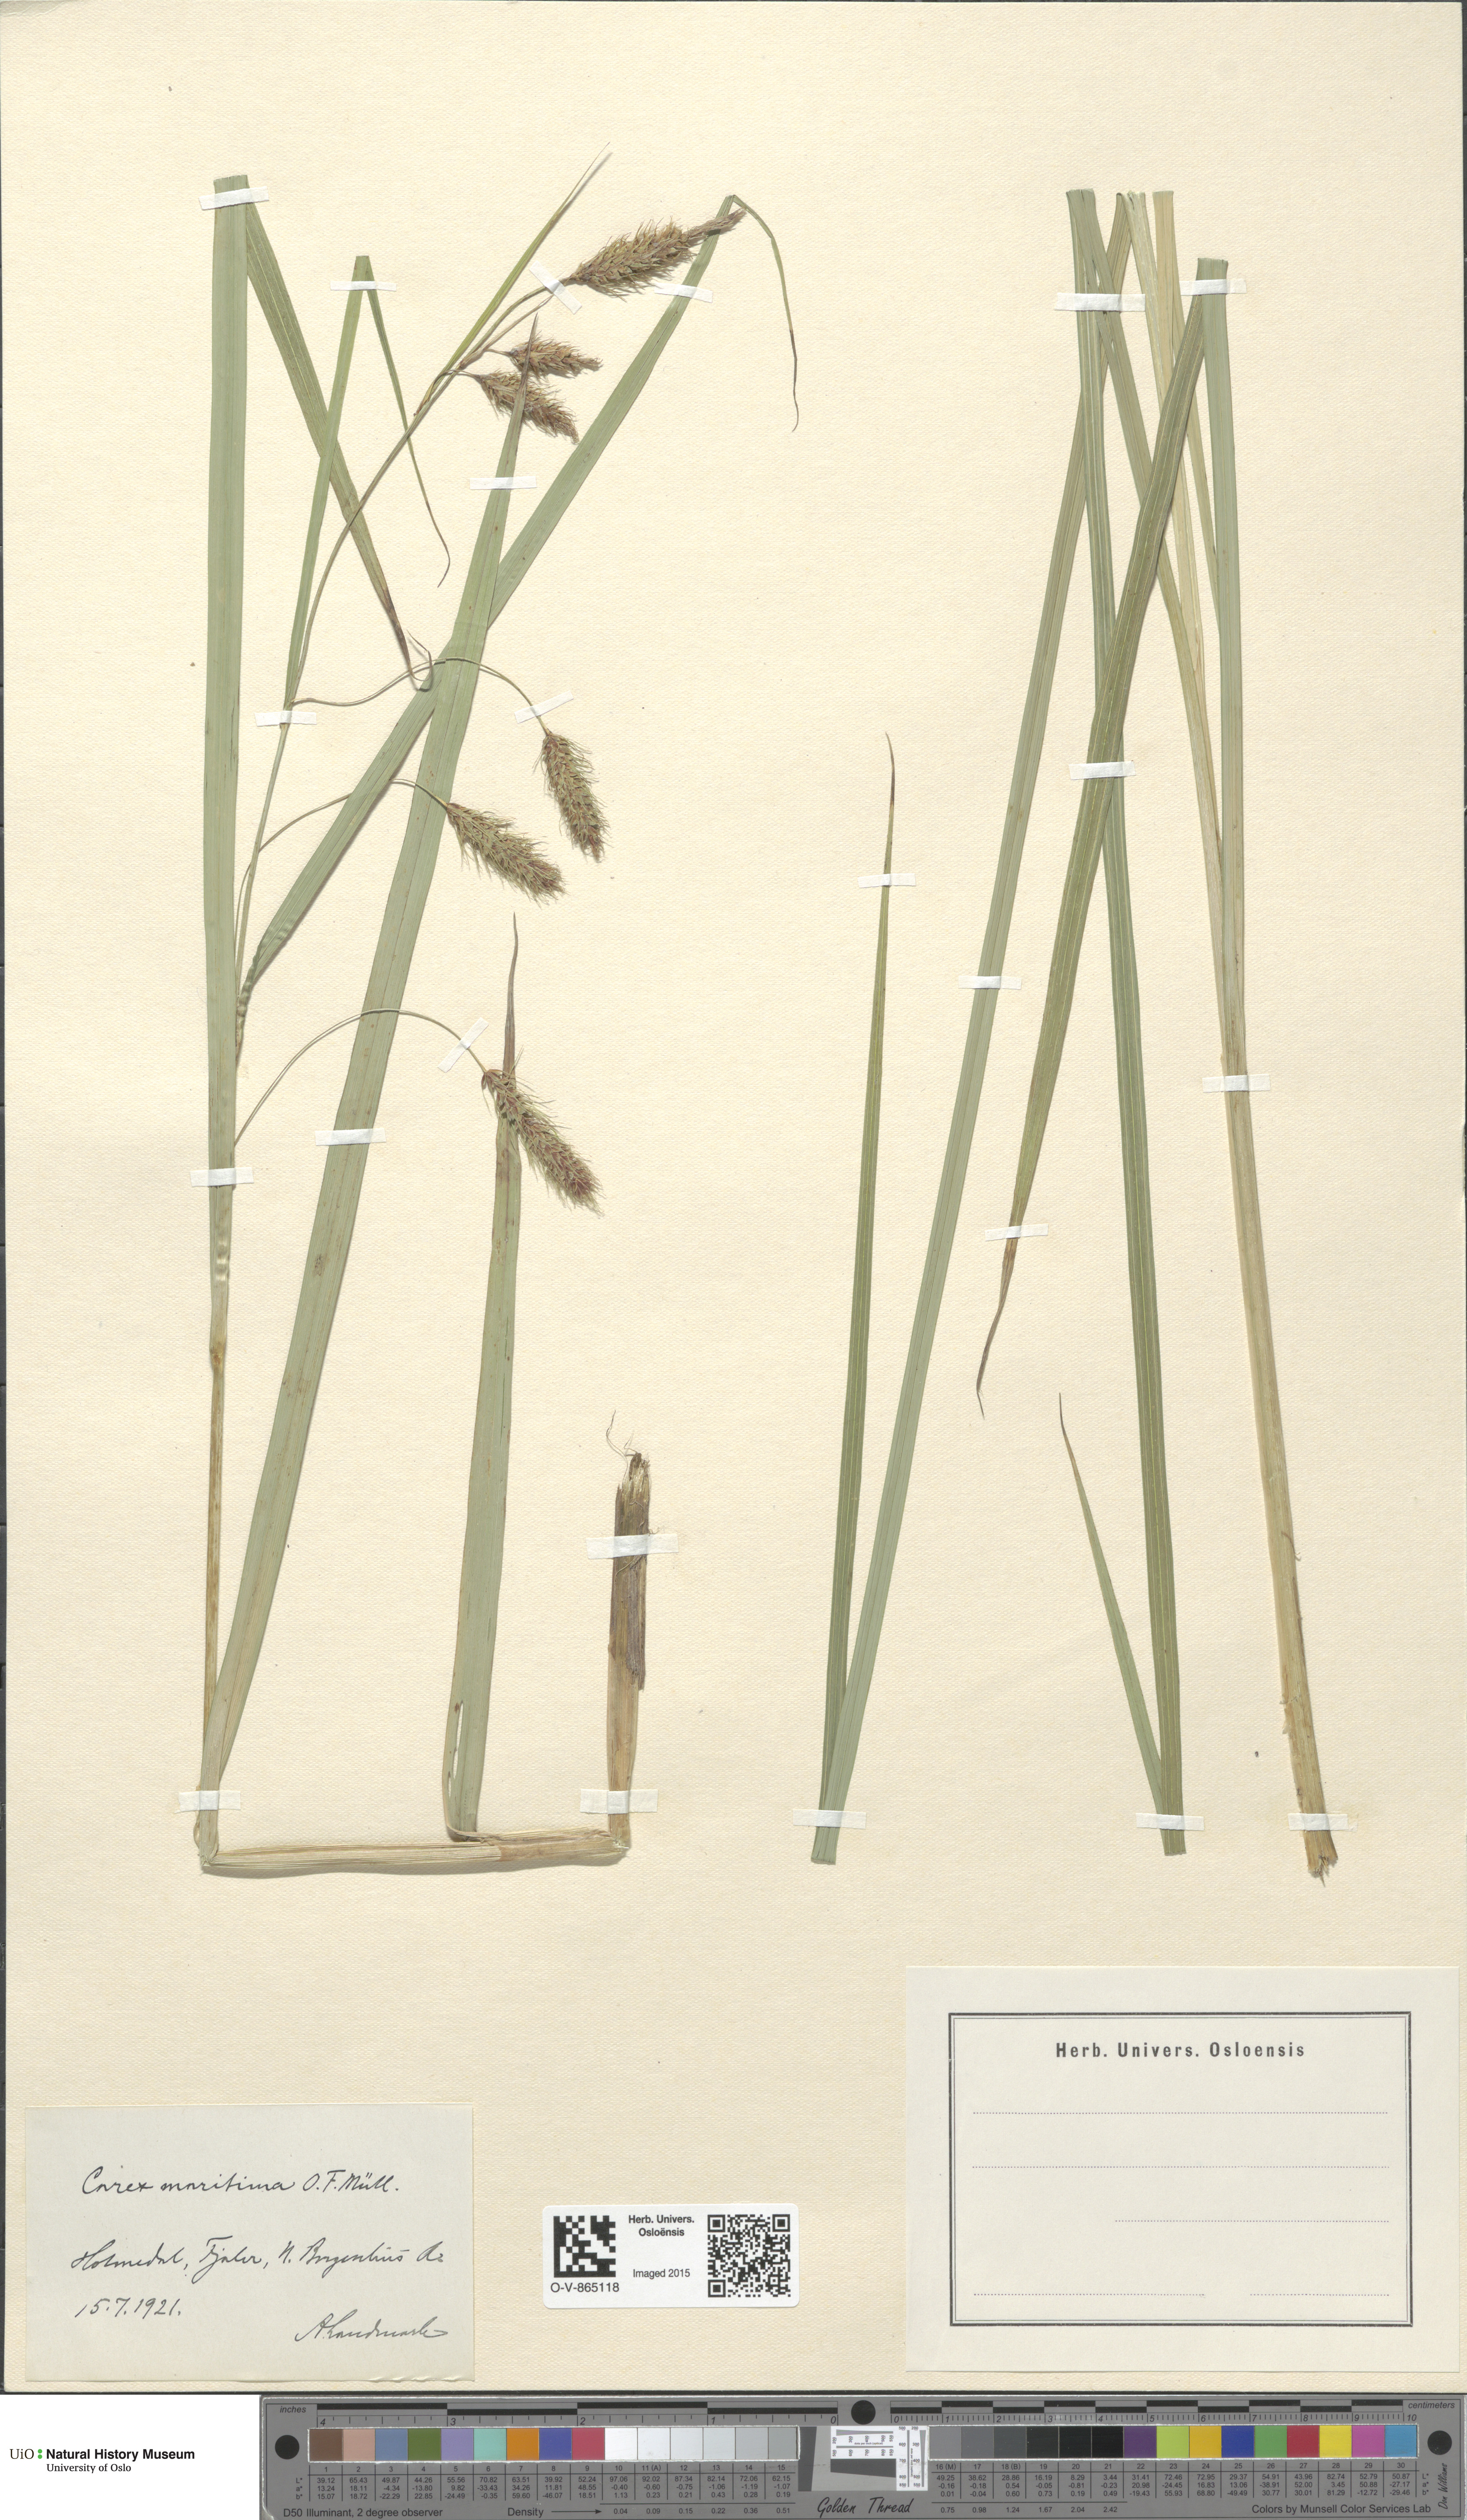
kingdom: Plantae
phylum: Tracheophyta
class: Liliopsida
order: Poales
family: Cyperaceae
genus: Carex
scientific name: Carex paleacea
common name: Chaffy sedge
